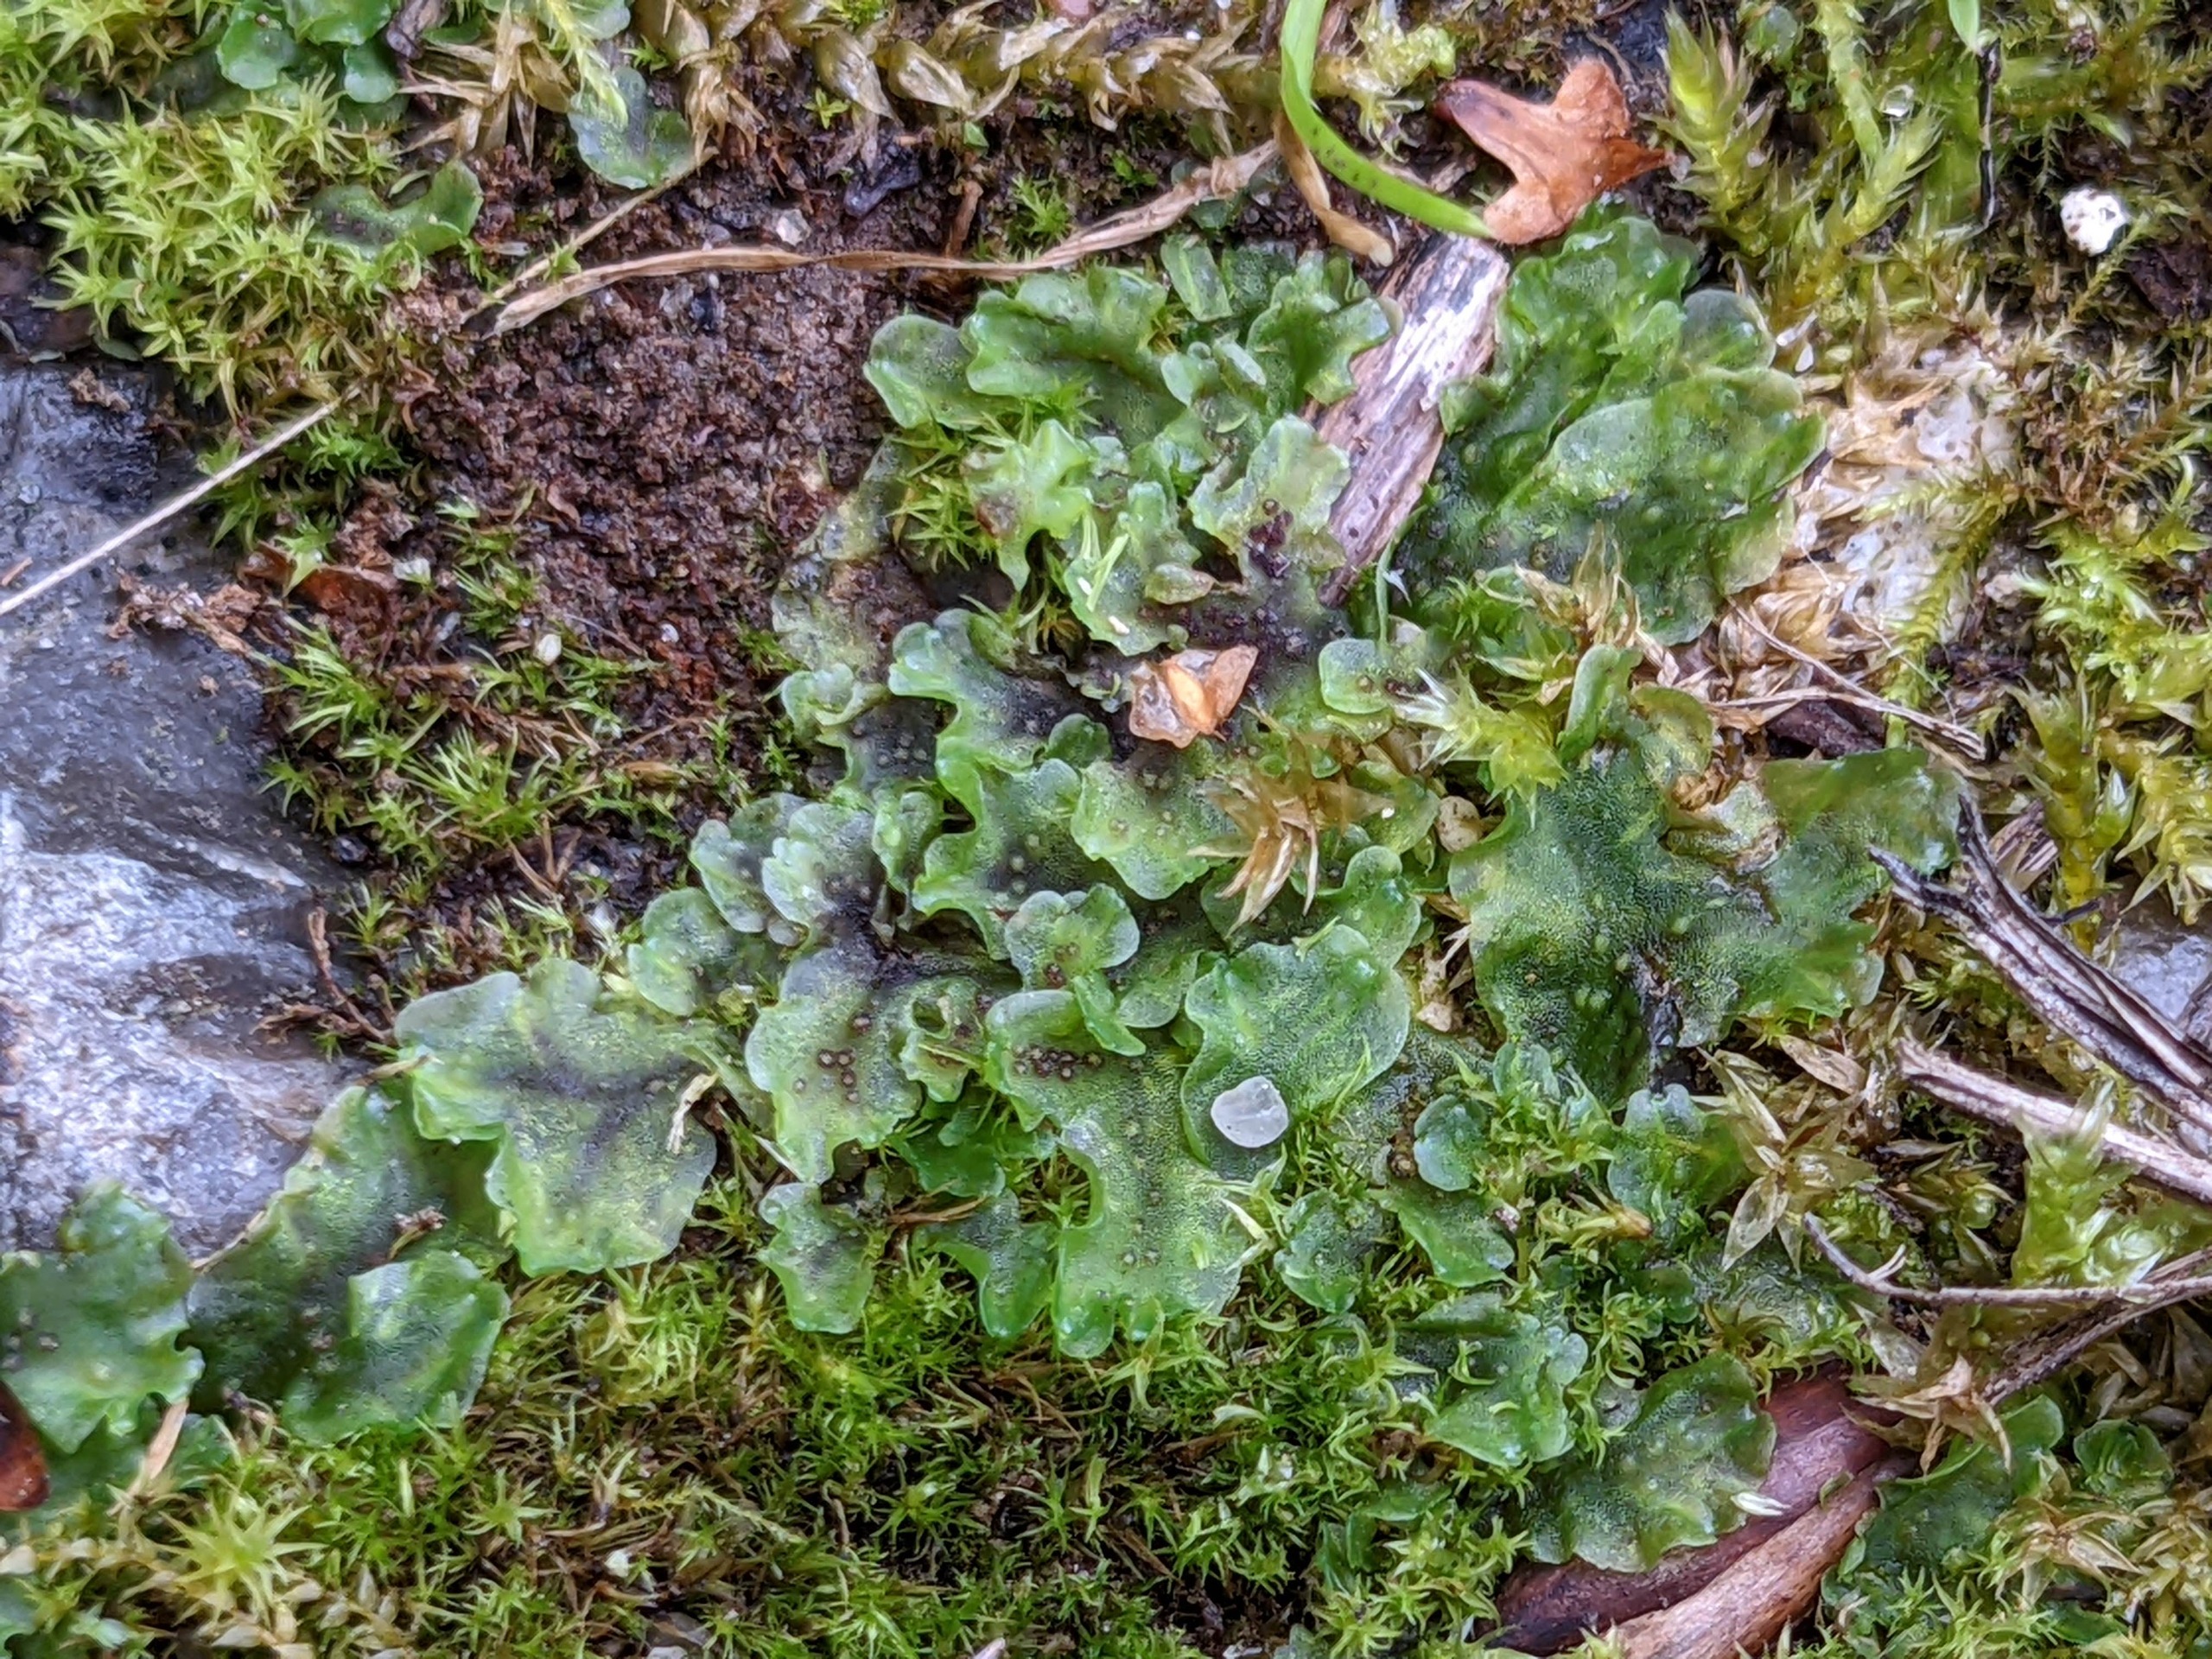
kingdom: Plantae
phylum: Marchantiophyta
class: Jungermanniopsida
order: Pelliales
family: Pelliaceae
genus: Pellia
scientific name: Pellia epiphylla
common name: Enbo ribbeløv
